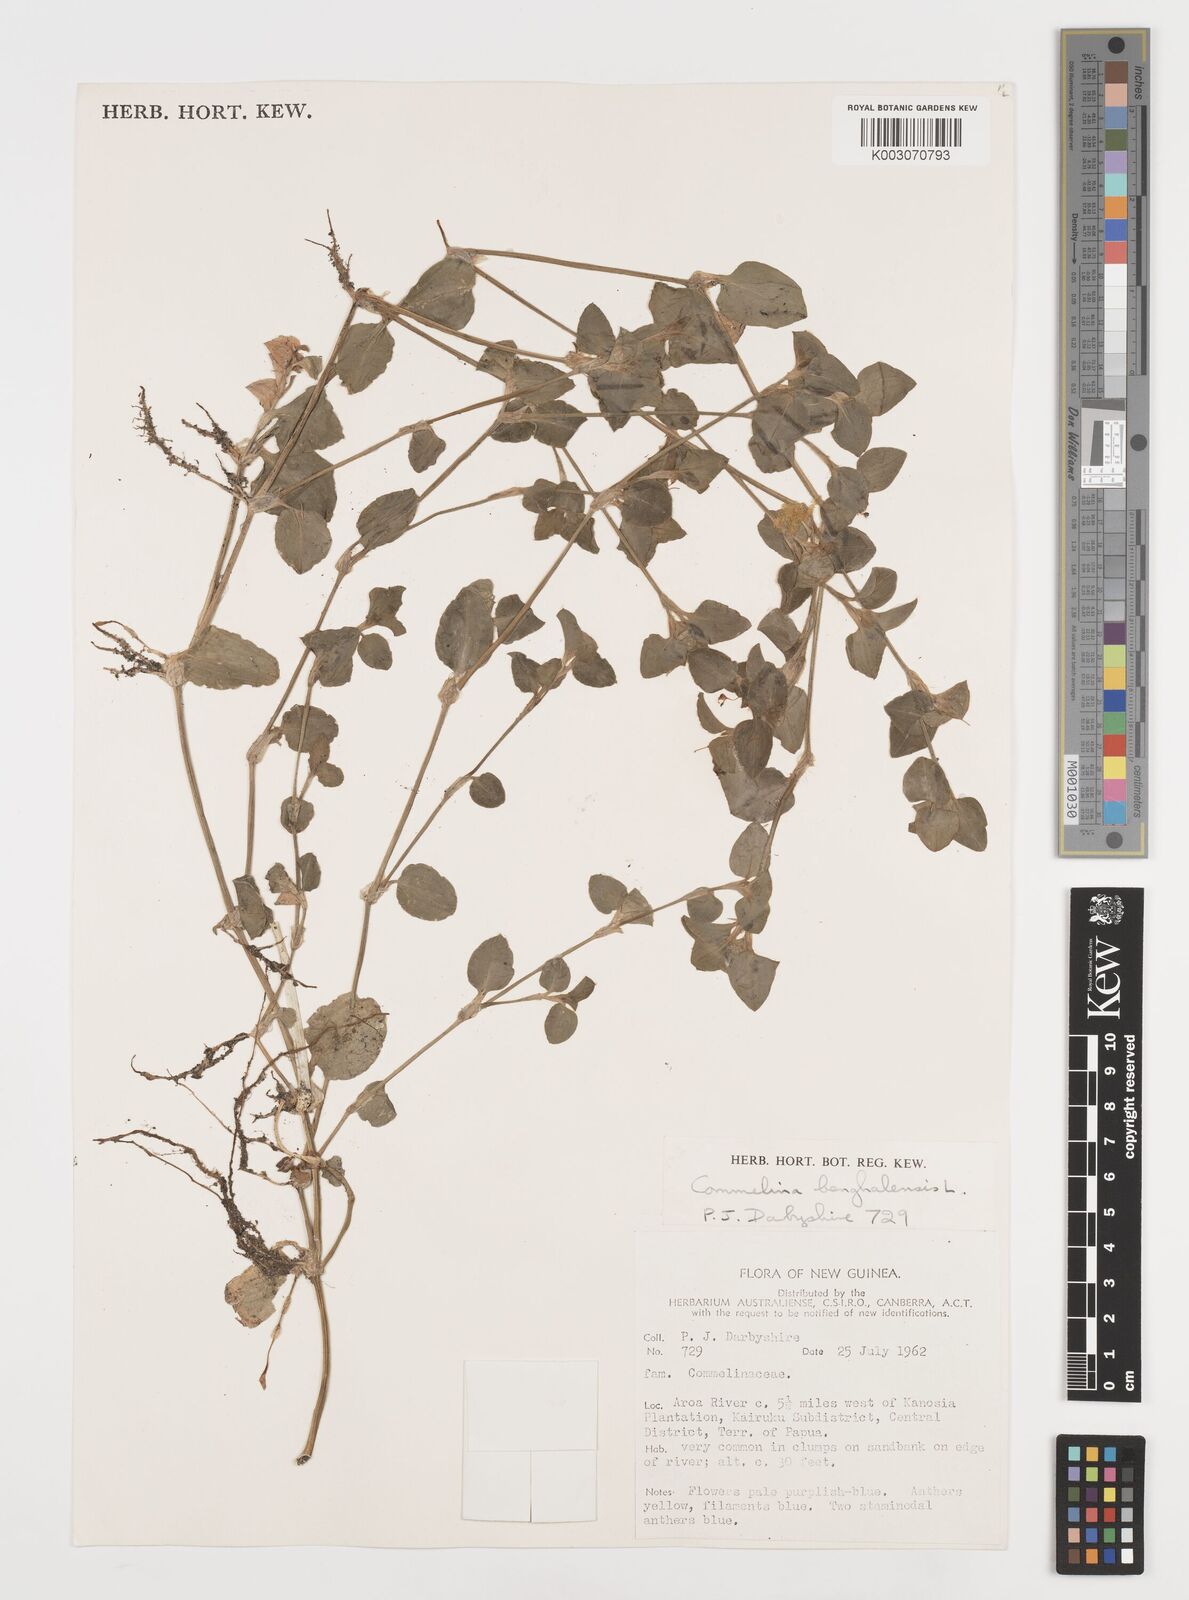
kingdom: Plantae
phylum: Tracheophyta
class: Liliopsida
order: Commelinales
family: Commelinaceae
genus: Commelina
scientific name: Commelina benghalensis
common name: Jio
